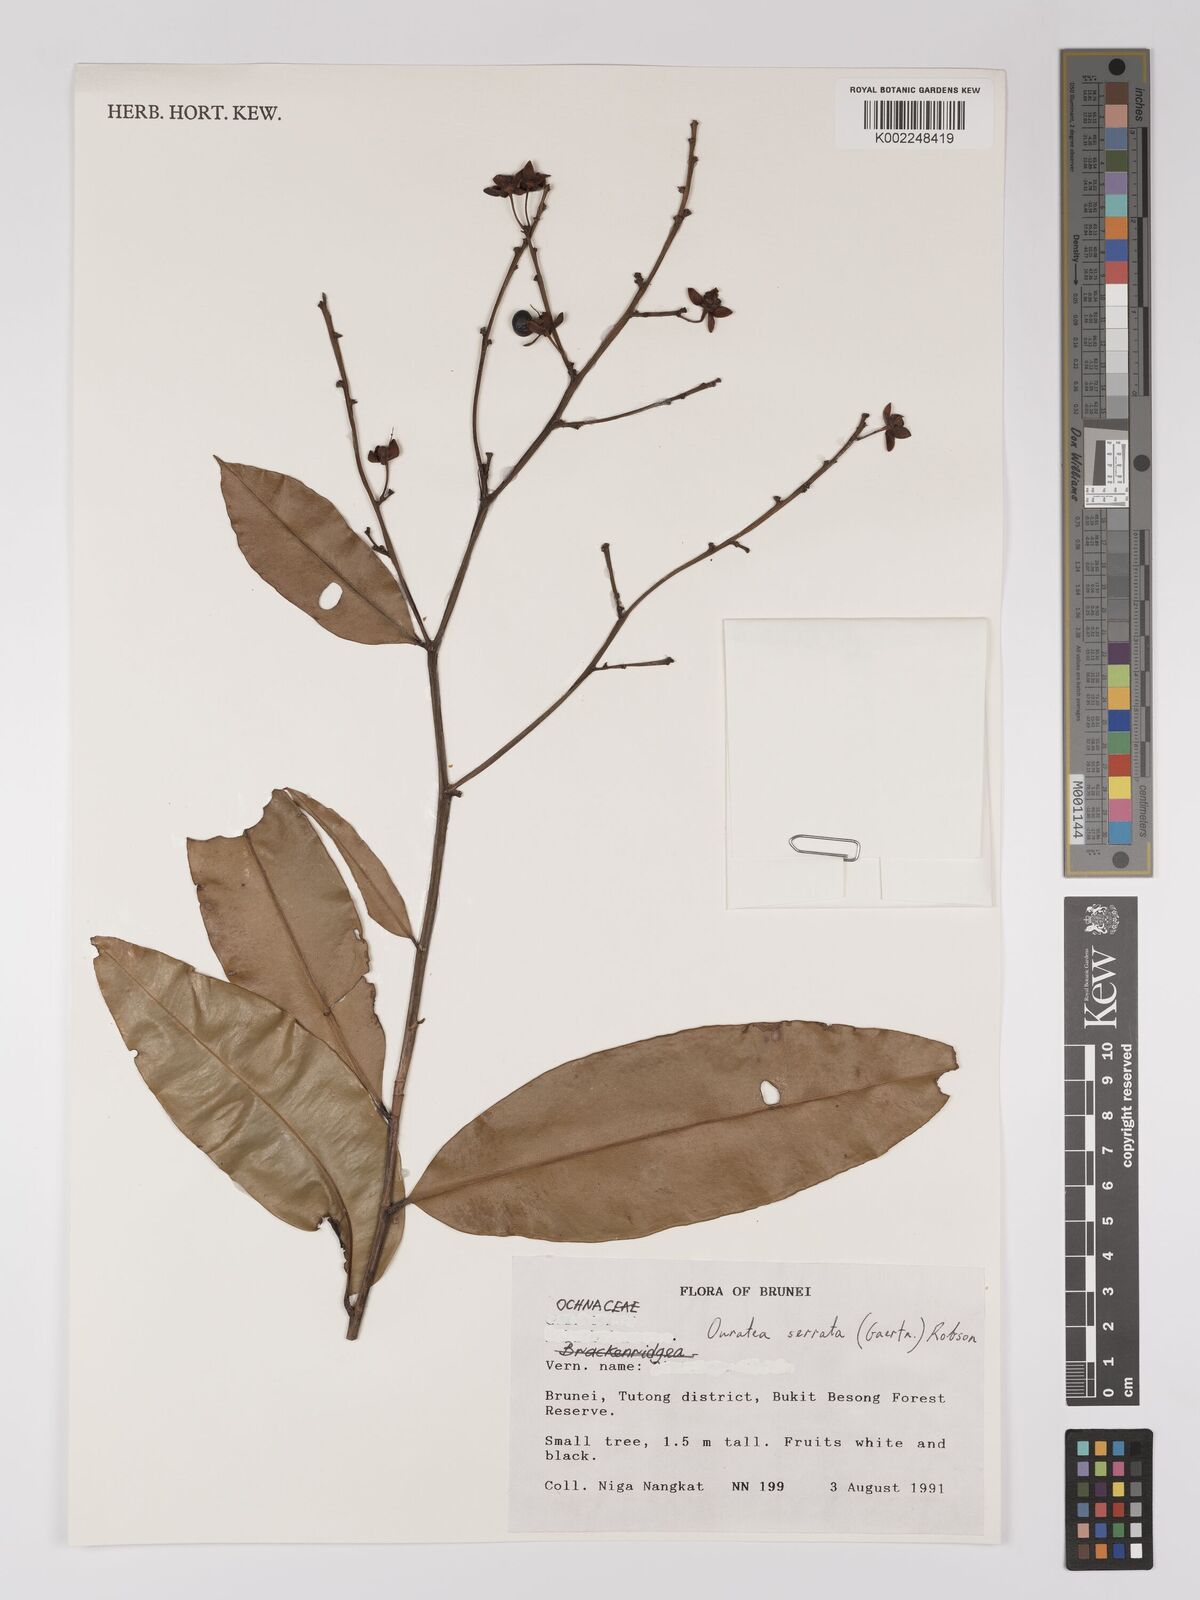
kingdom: Plantae
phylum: Tracheophyta
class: Magnoliopsida
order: Malpighiales
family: Ochnaceae
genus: Gomphia
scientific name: Gomphia serrata
